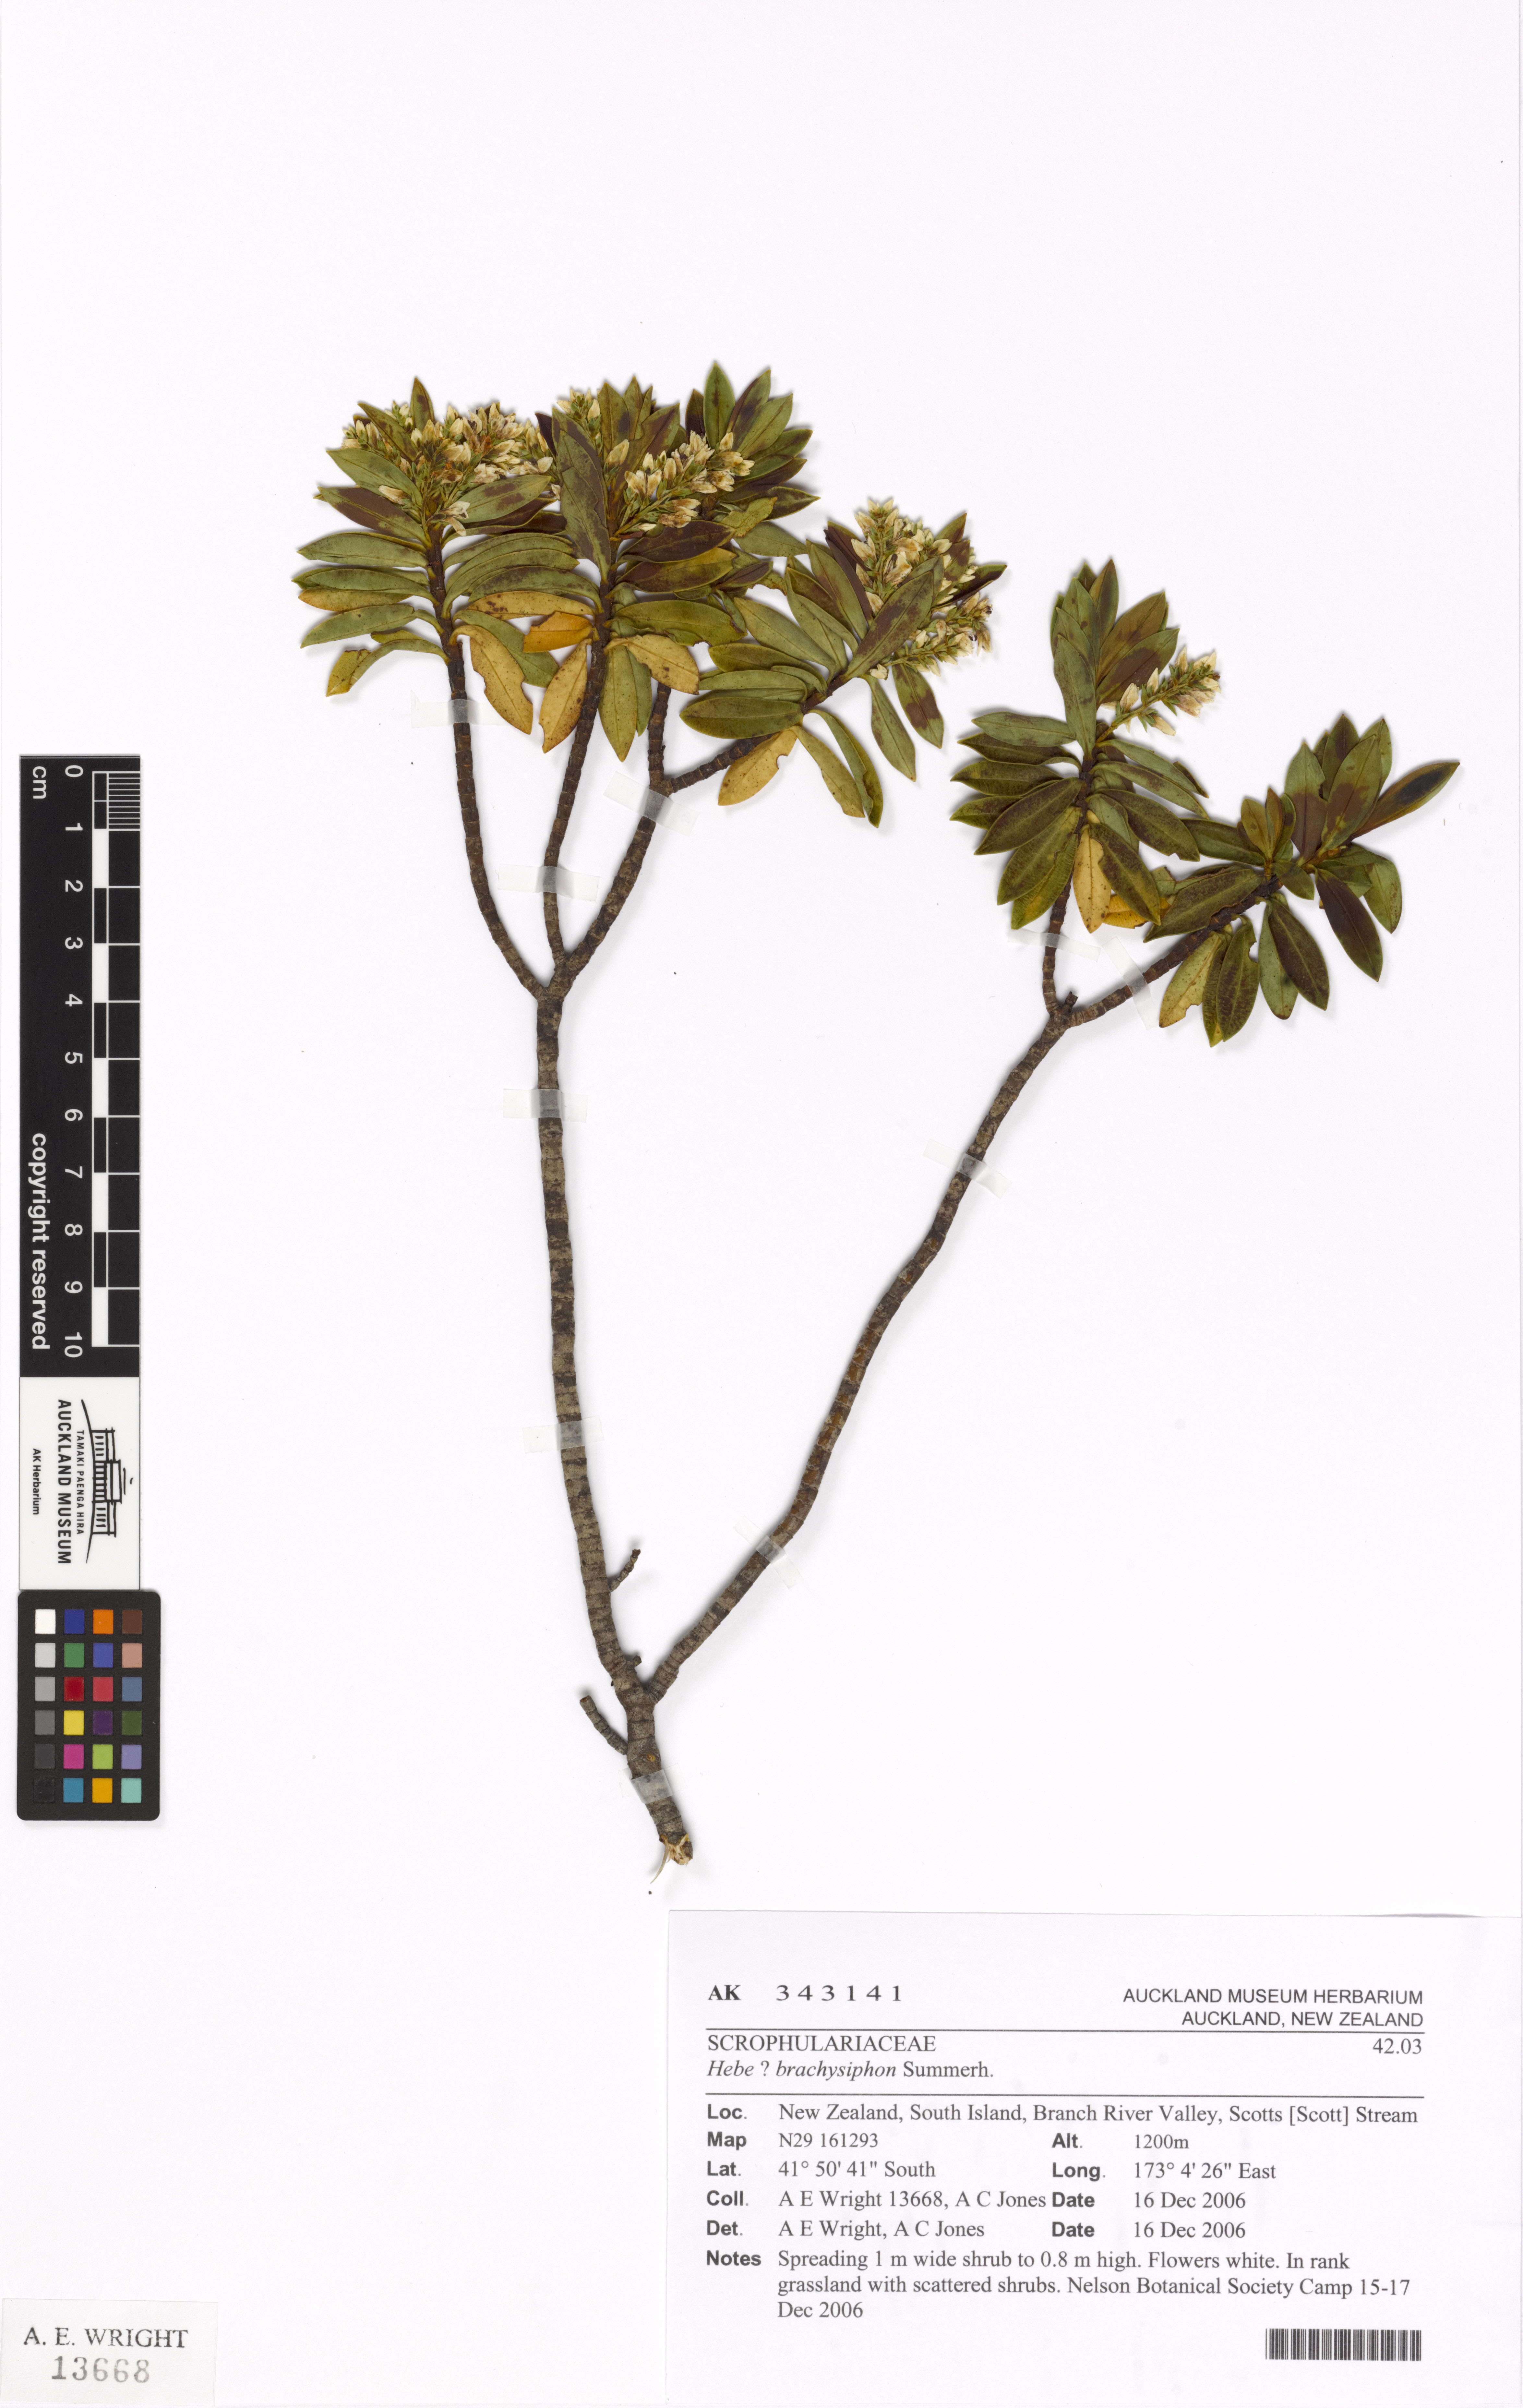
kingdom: Plantae
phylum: Tracheophyta
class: Magnoliopsida
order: Lamiales
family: Plantaginaceae
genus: Veronica
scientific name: Veronica cryptomorpha
